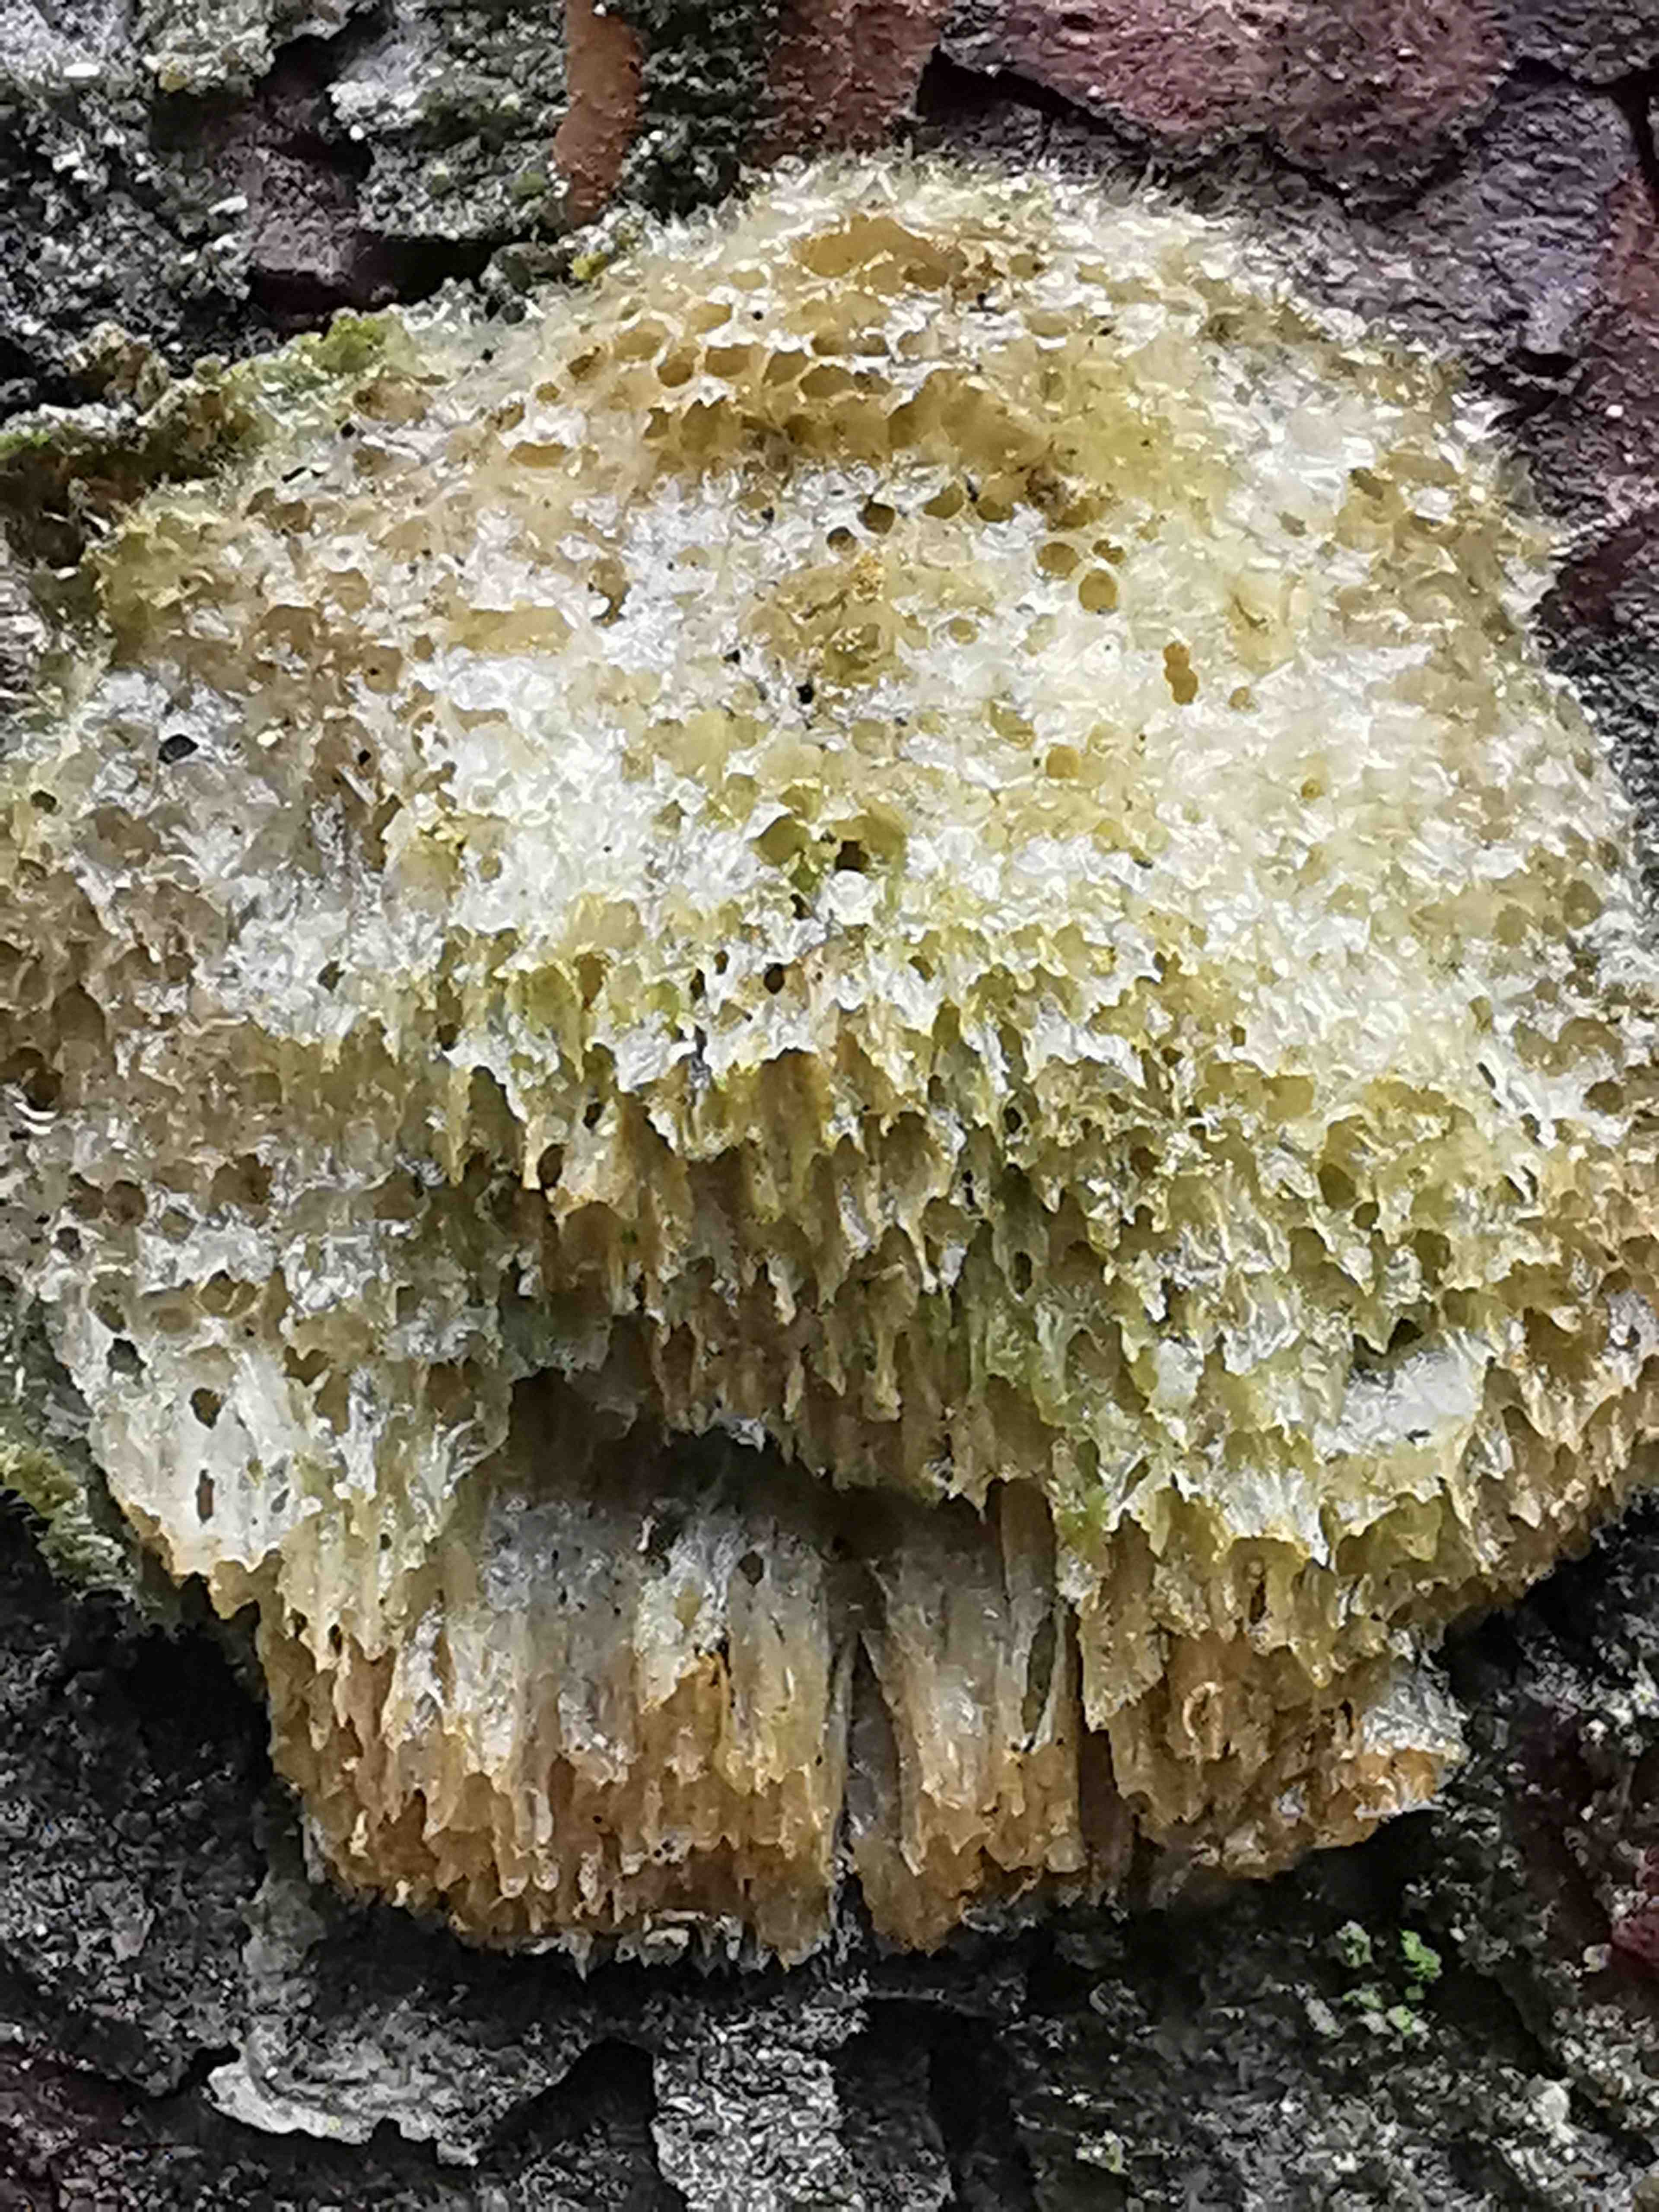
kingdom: Fungi
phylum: Basidiomycota
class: Agaricomycetes
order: Polyporales
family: Polyporaceae
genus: Diplomitoporus
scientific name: Diplomitoporus flavescens
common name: fyrre-elastikporesvamp
